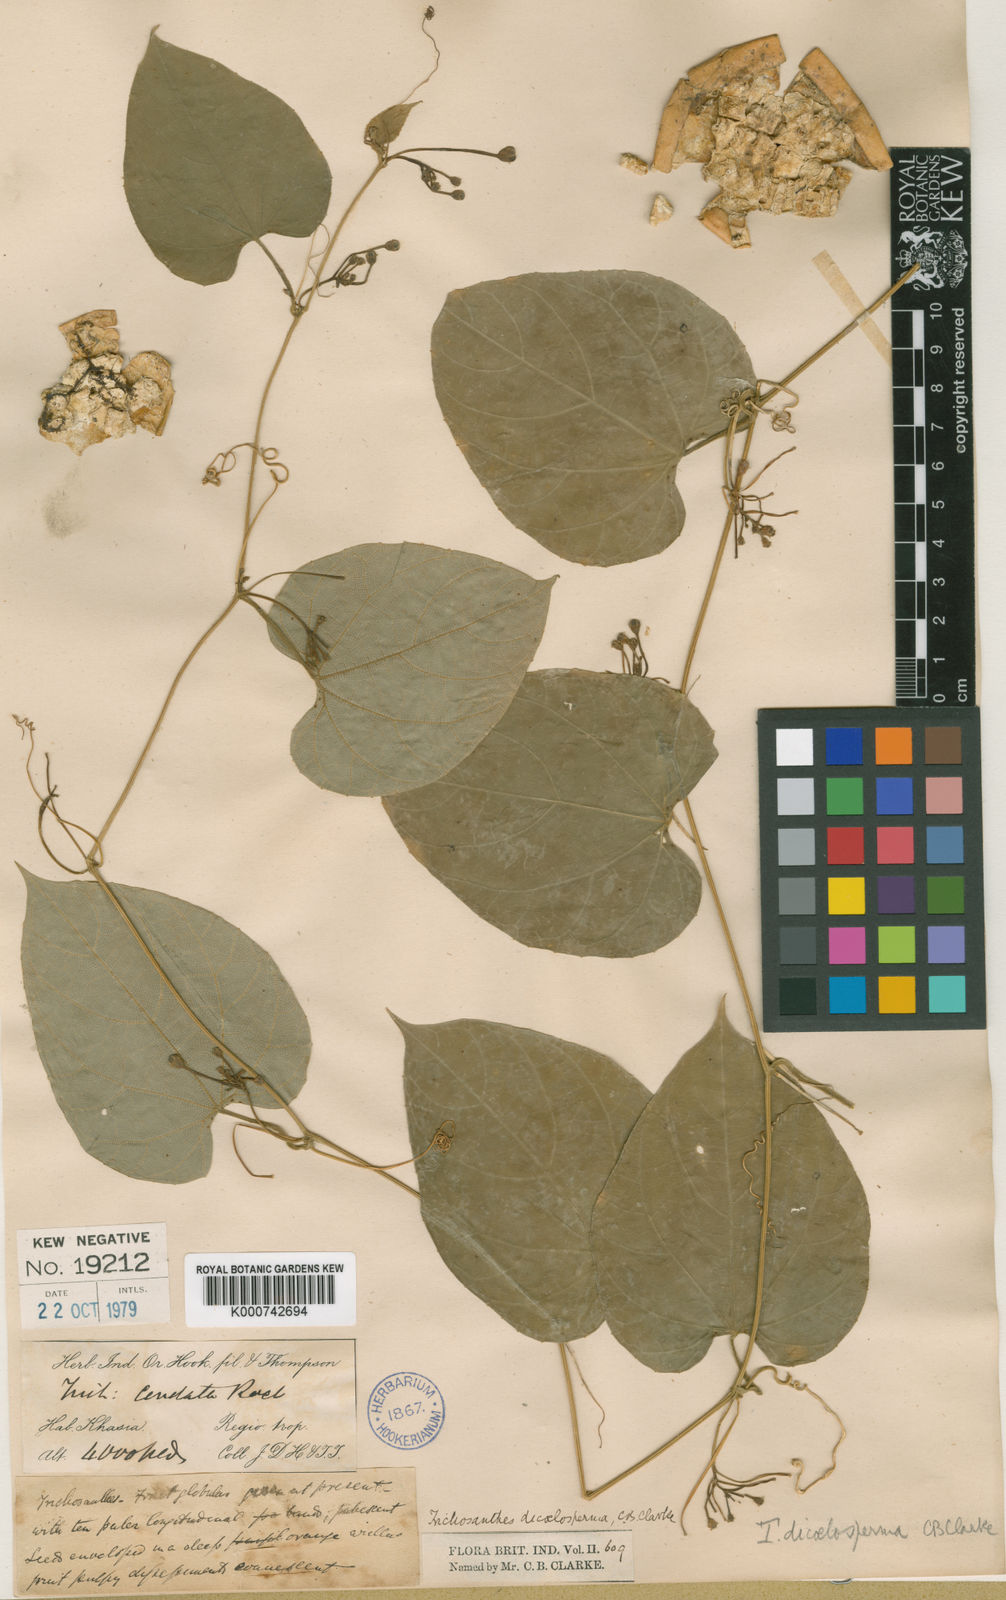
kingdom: Plantae
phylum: Tracheophyta
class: Magnoliopsida
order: Cucurbitales
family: Cucurbitaceae
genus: Trichosanthes
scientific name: Trichosanthes
